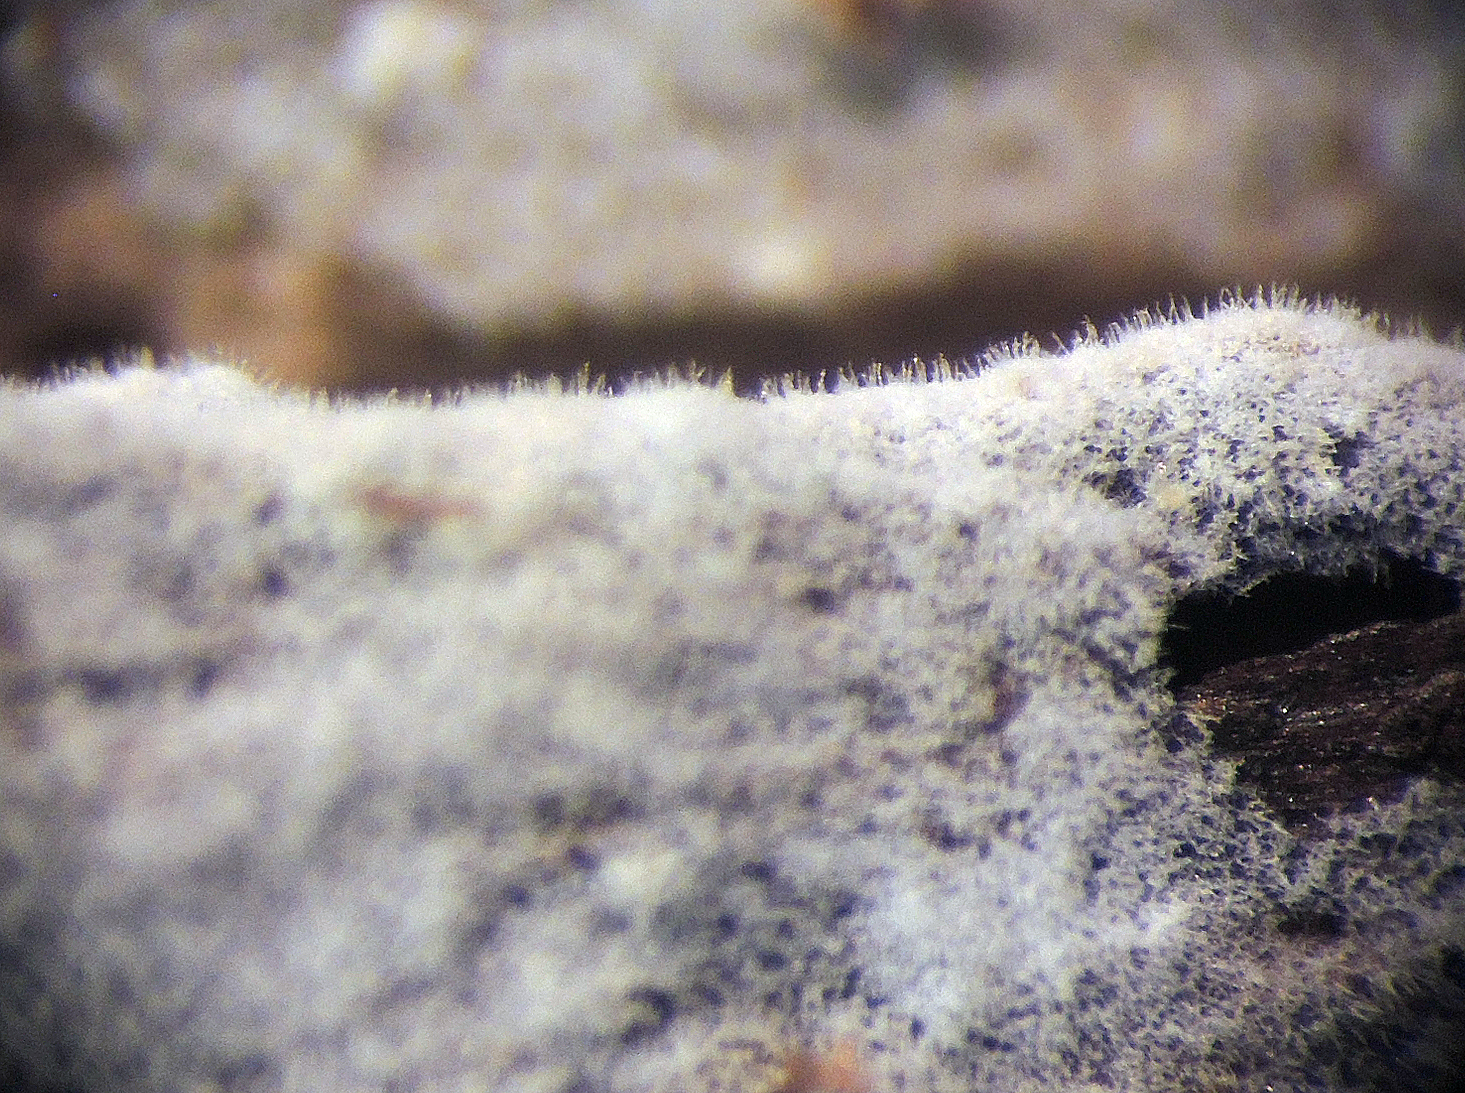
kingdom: Fungi
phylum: Basidiomycota
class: Agaricomycetes
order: Trechisporales
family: Hydnodontaceae
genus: Subulicystidium
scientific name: Subulicystidium longisporum
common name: almindelig pigtrådshinde
